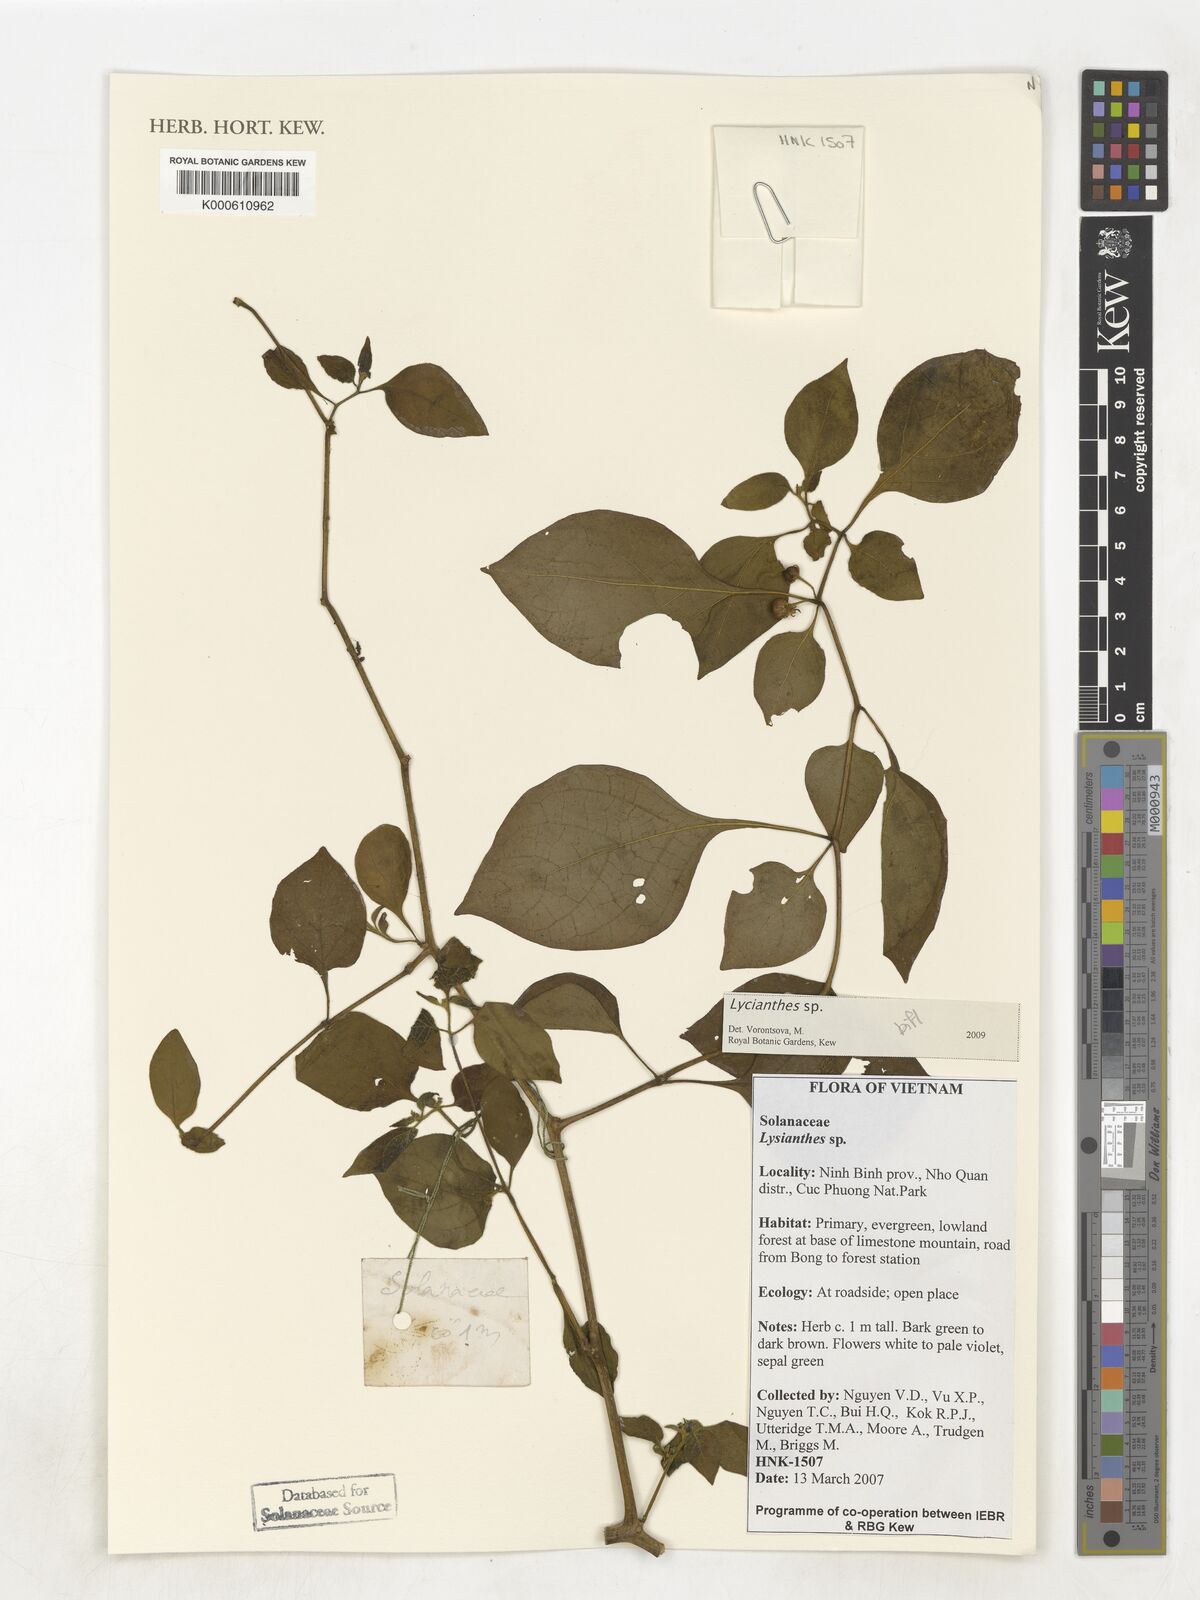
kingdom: Plantae
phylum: Tracheophyta
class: Magnoliopsida
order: Solanales
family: Solanaceae
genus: Lycianthes
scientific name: Lycianthes
